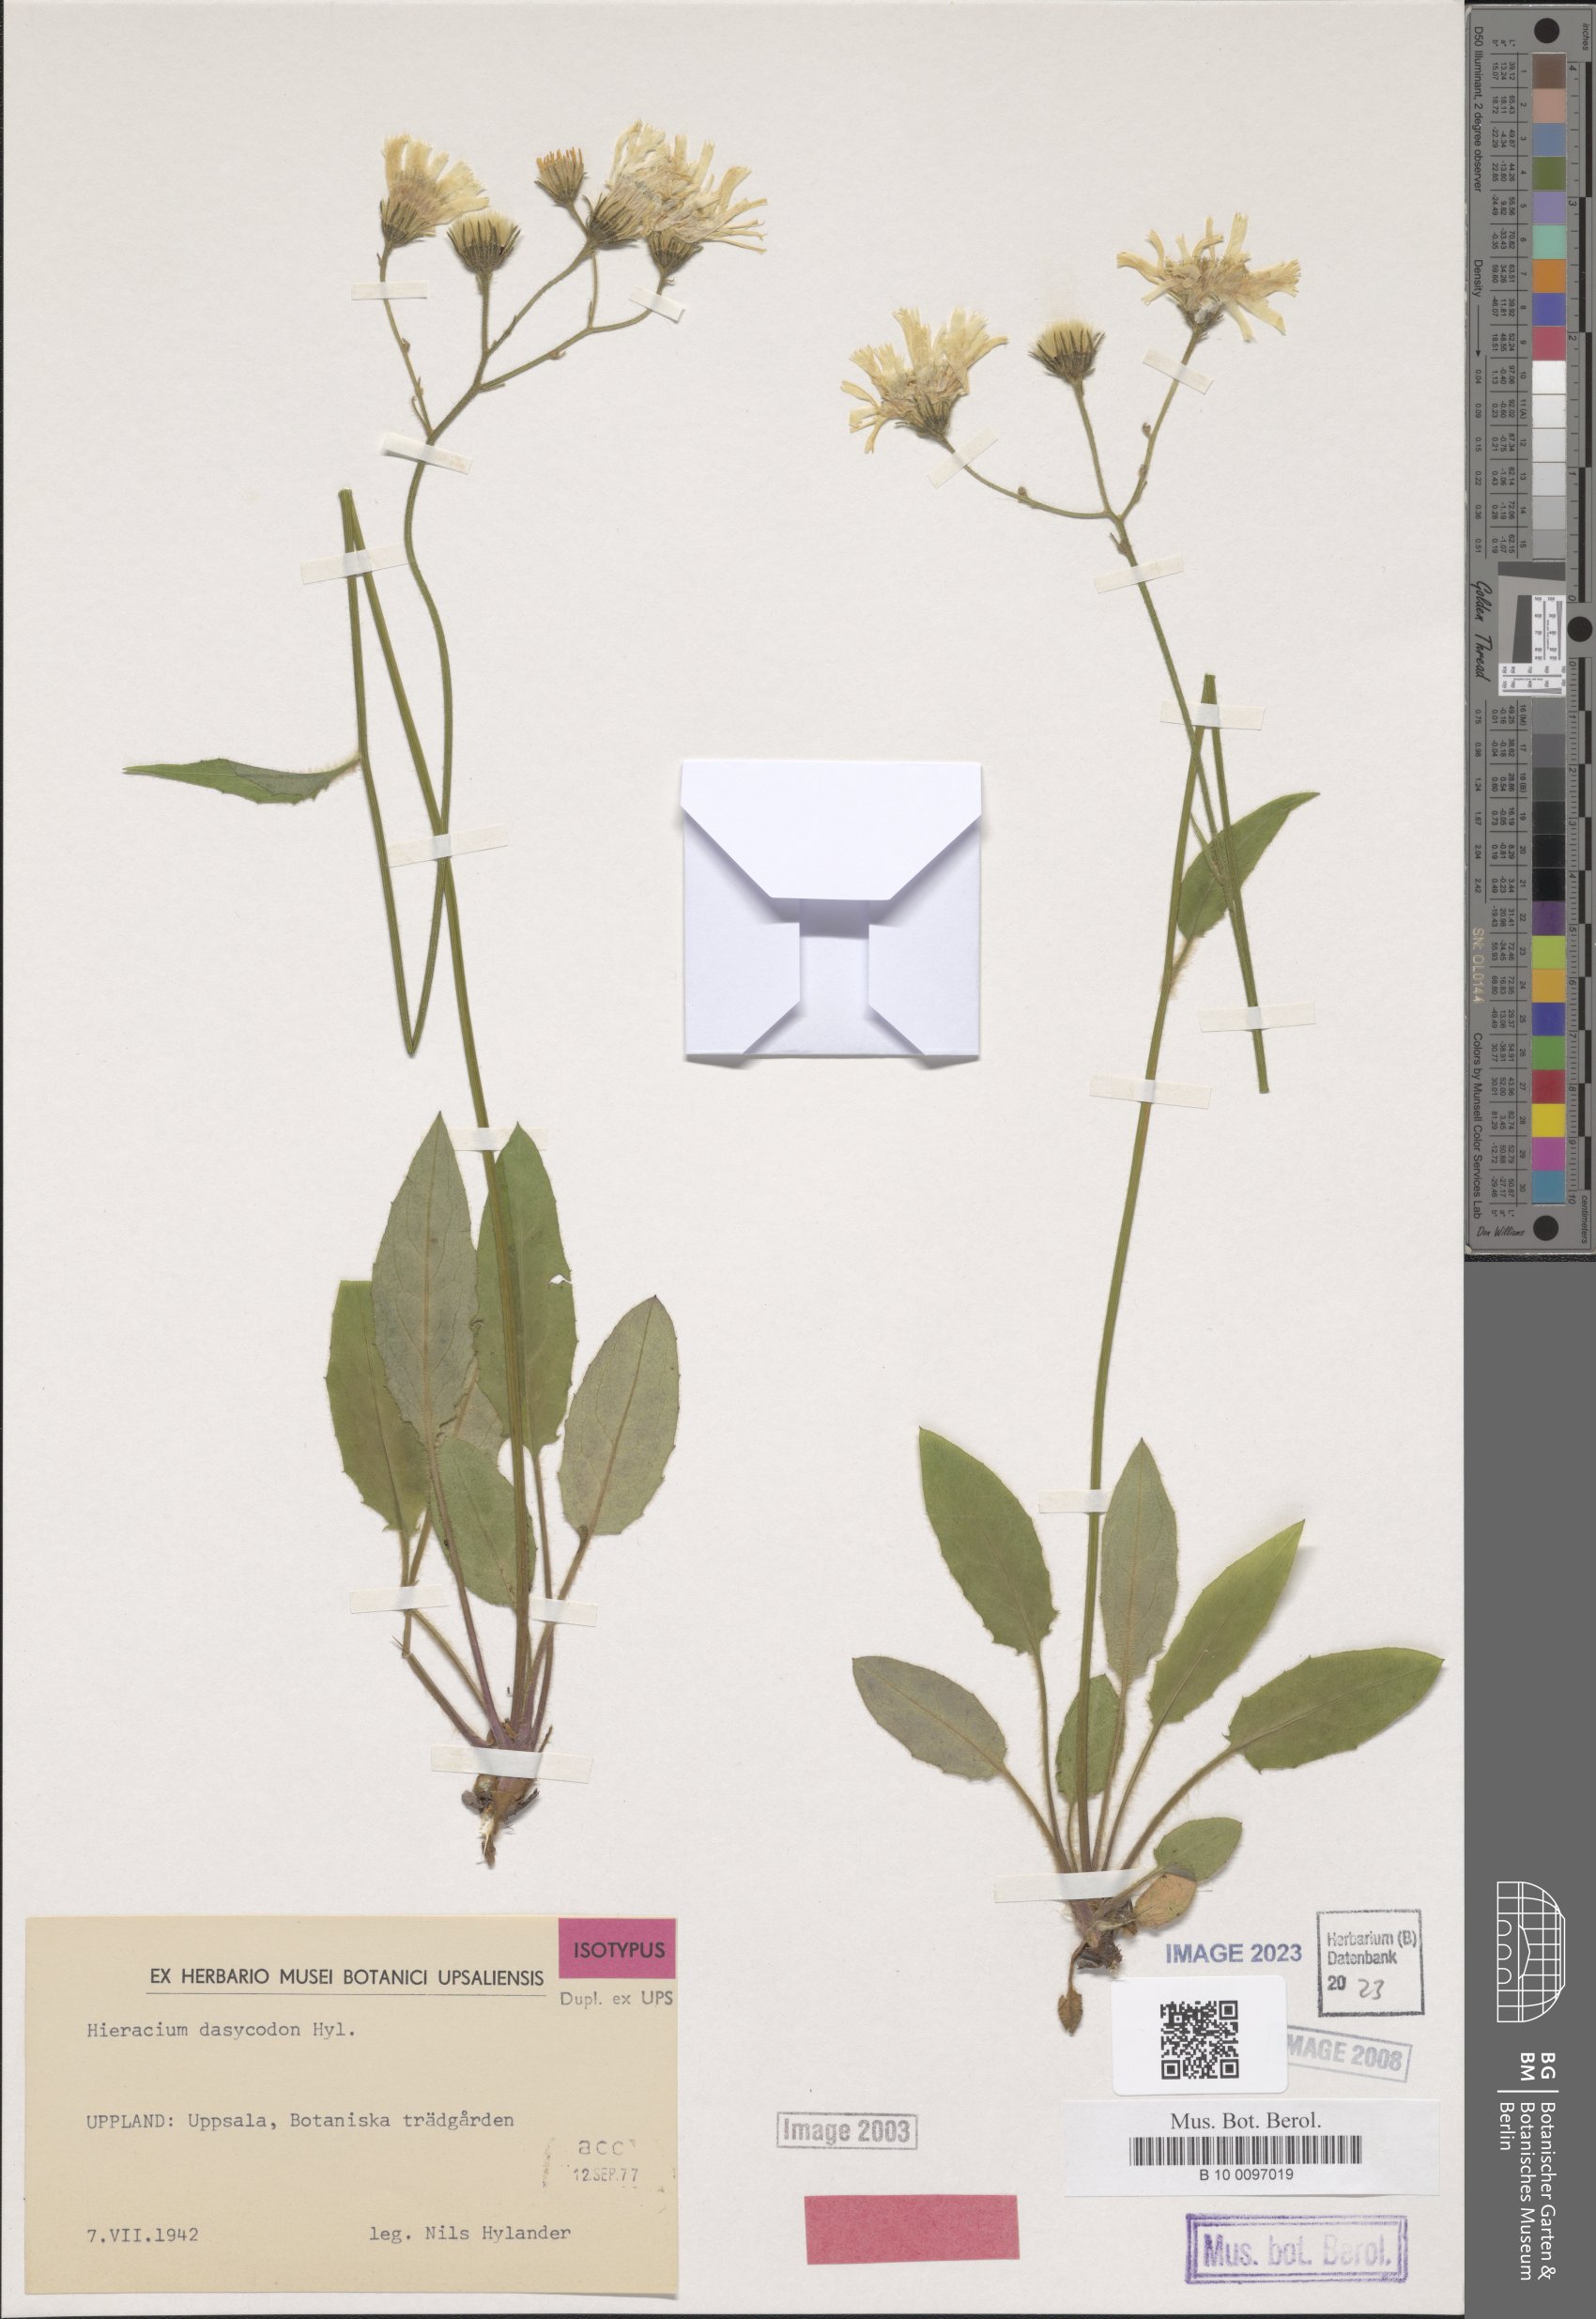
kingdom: Plantae
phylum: Tracheophyta
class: Magnoliopsida
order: Asterales
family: Asteraceae
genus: Hieracium
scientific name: Hieracium cyrtocladum
